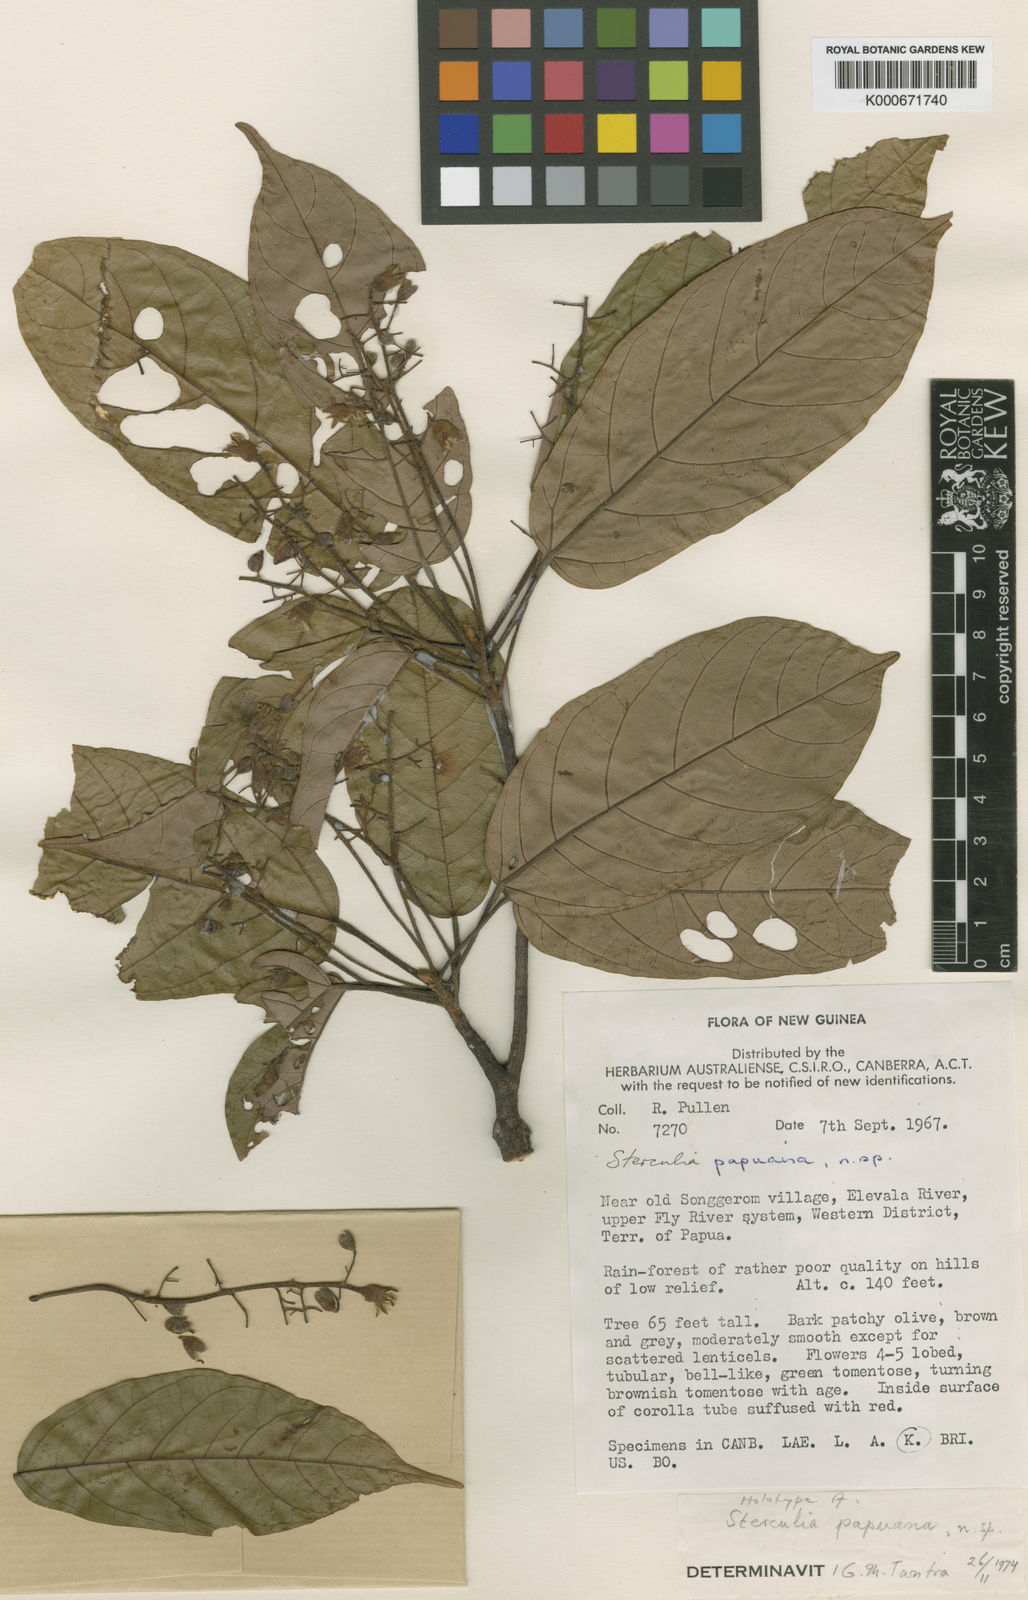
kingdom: Plantae
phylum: Tracheophyta
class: Magnoliopsida
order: Malvales
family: Malvaceae
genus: Sterculia
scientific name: Sterculia papuana
